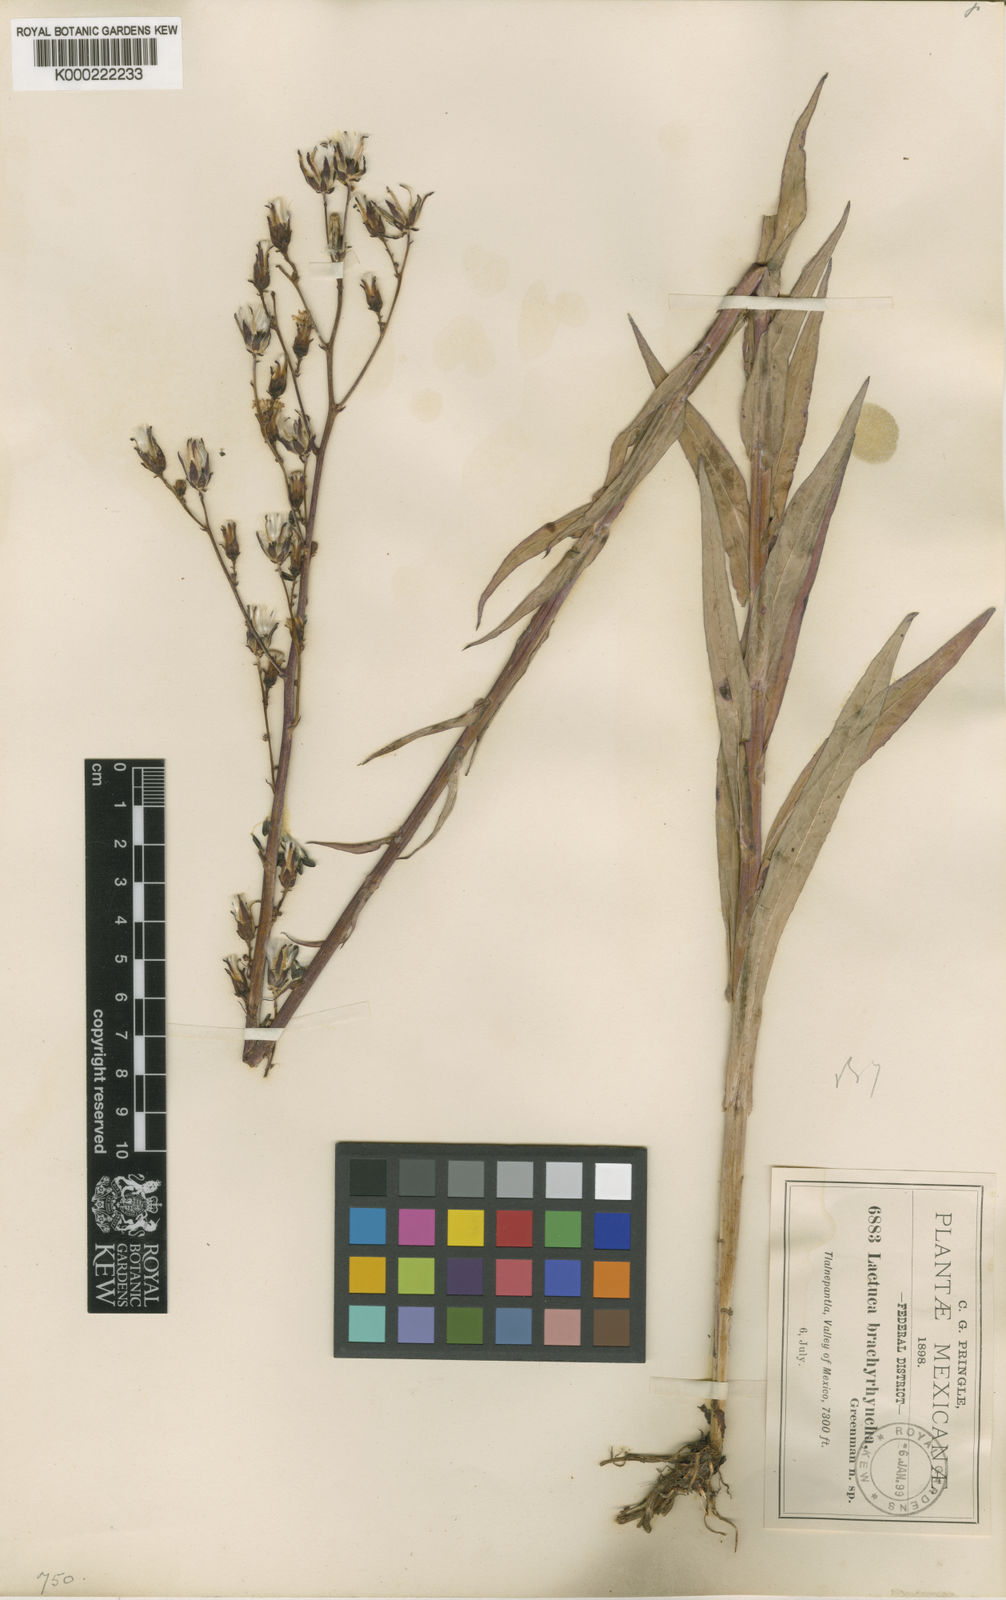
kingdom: Plantae
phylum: Tracheophyta
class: Magnoliopsida
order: Asterales
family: Asteraceae
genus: Lactuca
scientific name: Lactuca brachyrrhyncha
